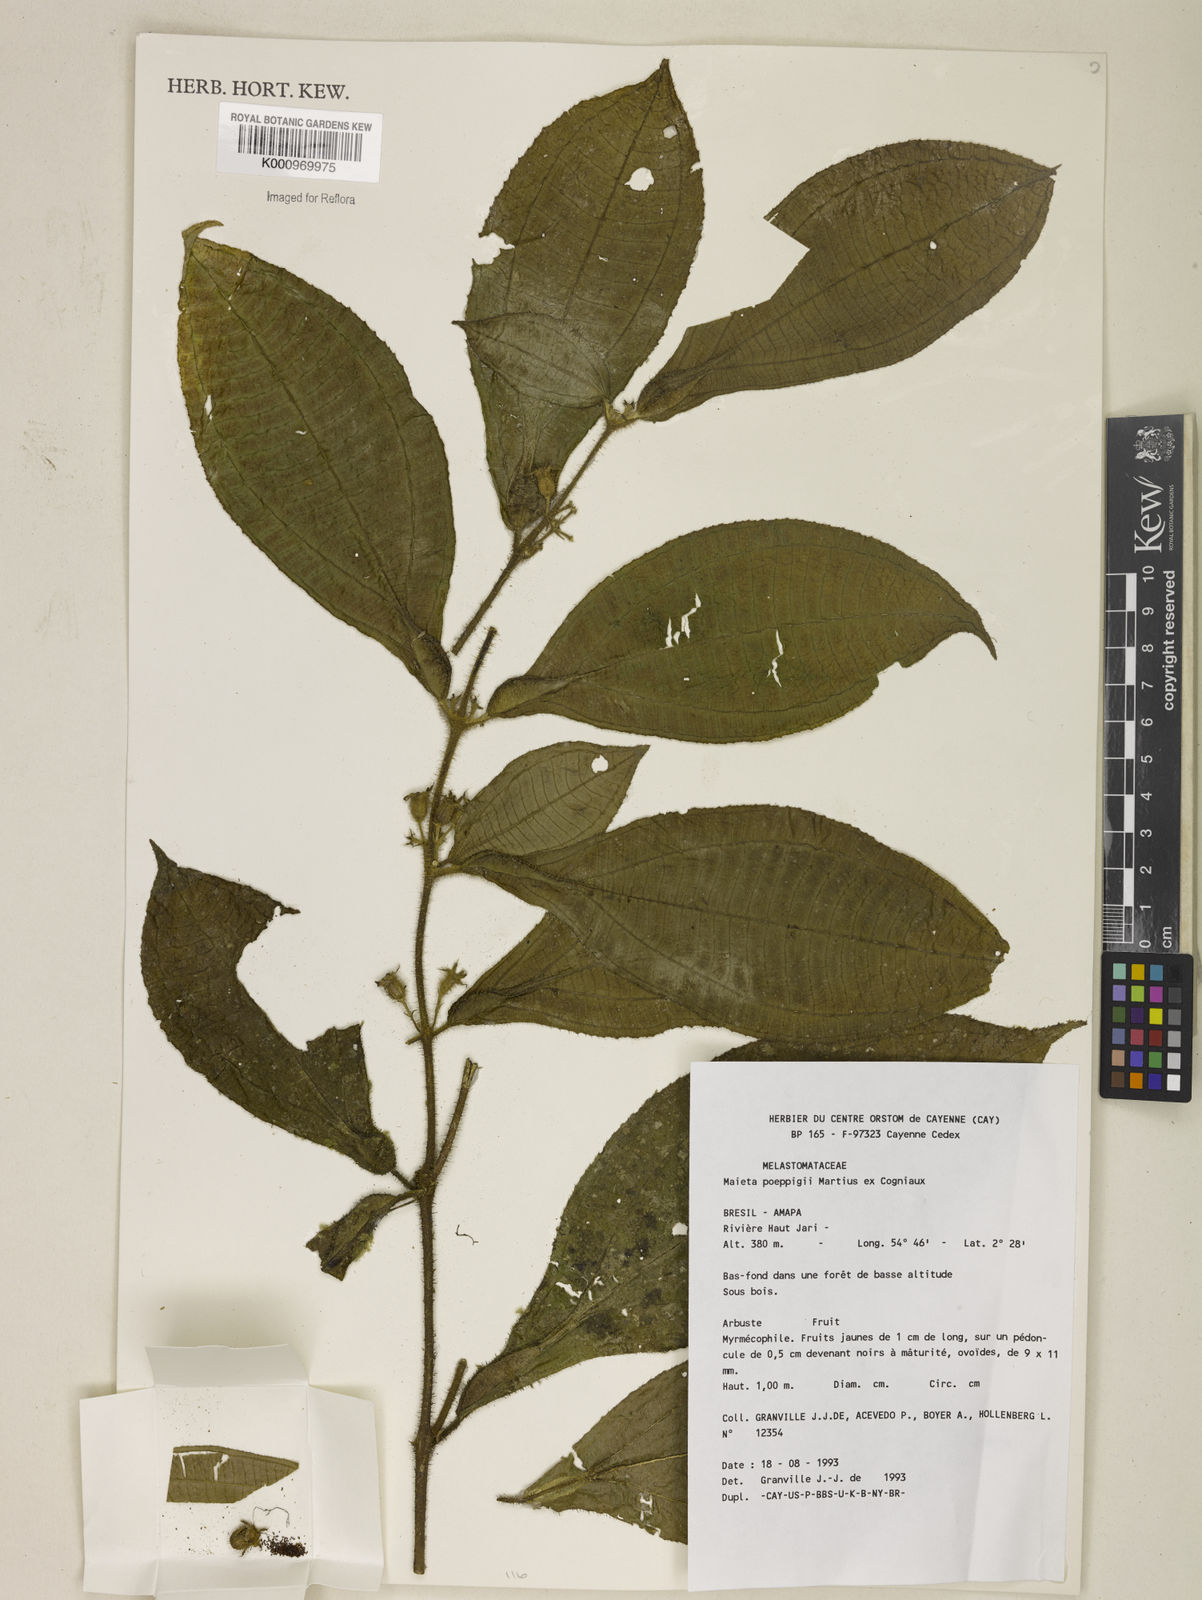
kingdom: Plantae
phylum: Tracheophyta
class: Magnoliopsida
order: Myrtales
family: Melastomataceae
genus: Miconia
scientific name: Miconia alternidomatia
